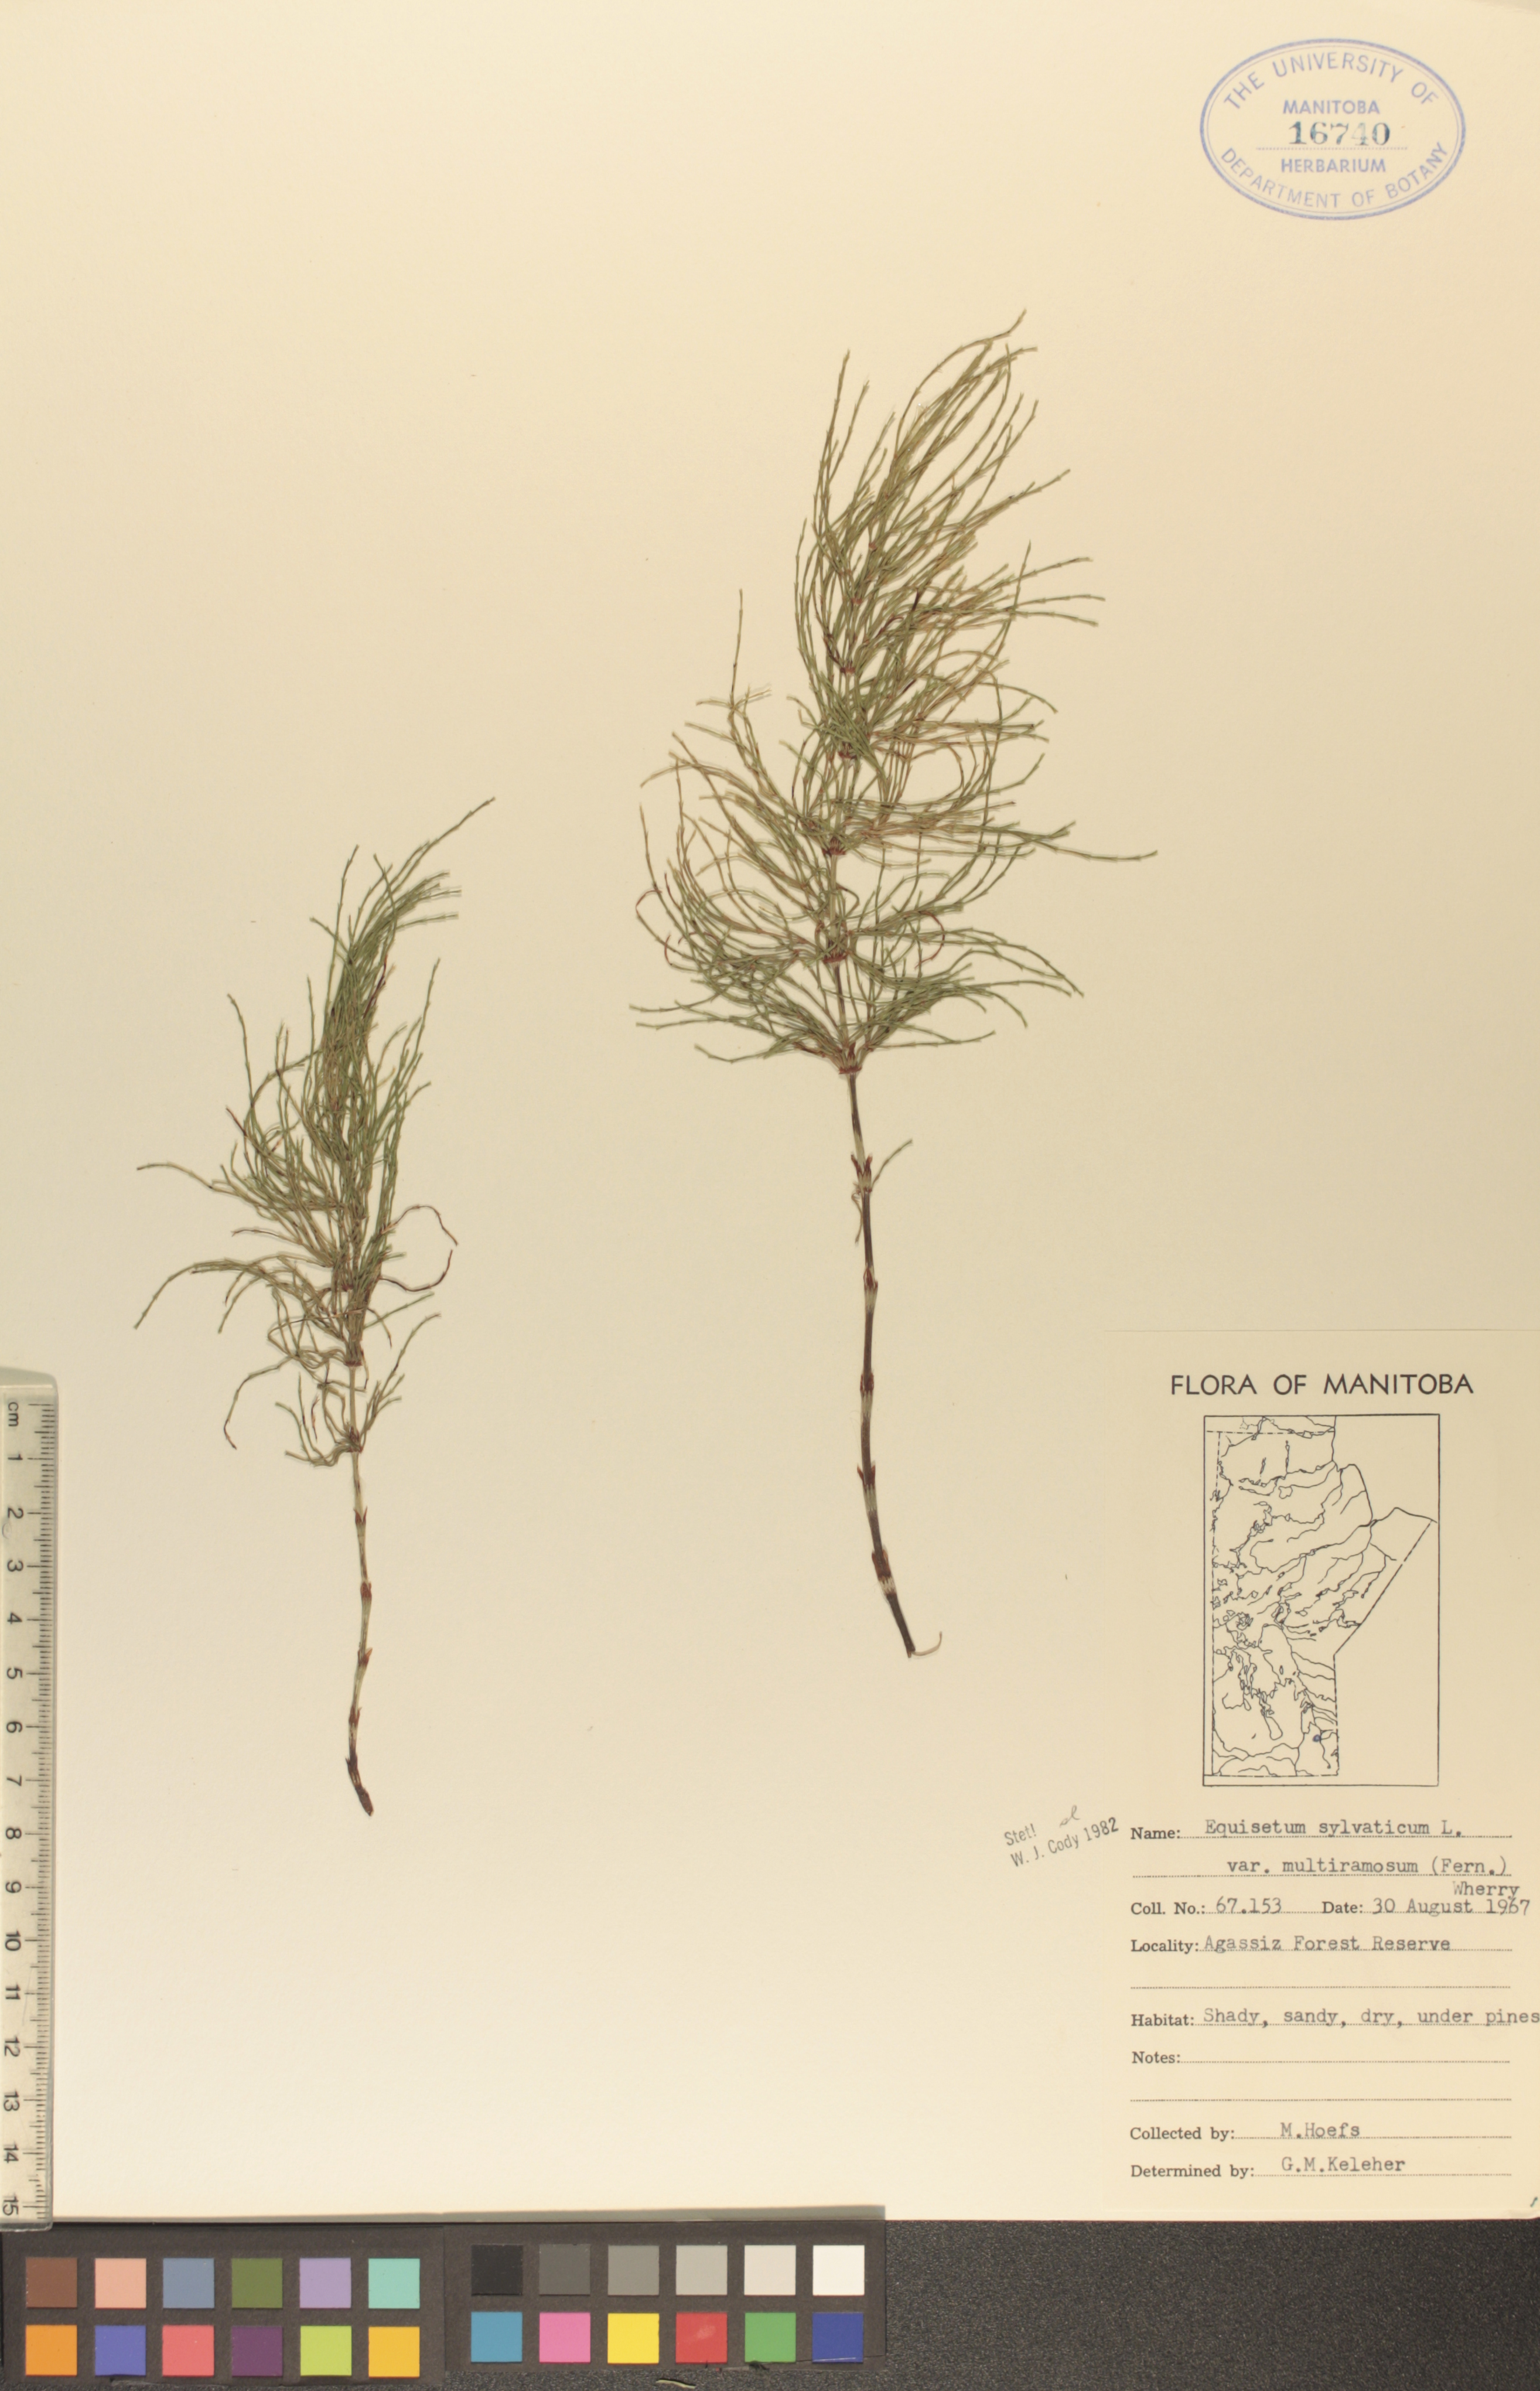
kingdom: Plantae
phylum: Tracheophyta
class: Polypodiopsida
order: Equisetales
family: Equisetaceae
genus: Equisetum
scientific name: Equisetum sylvaticum
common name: Wood horsetail
